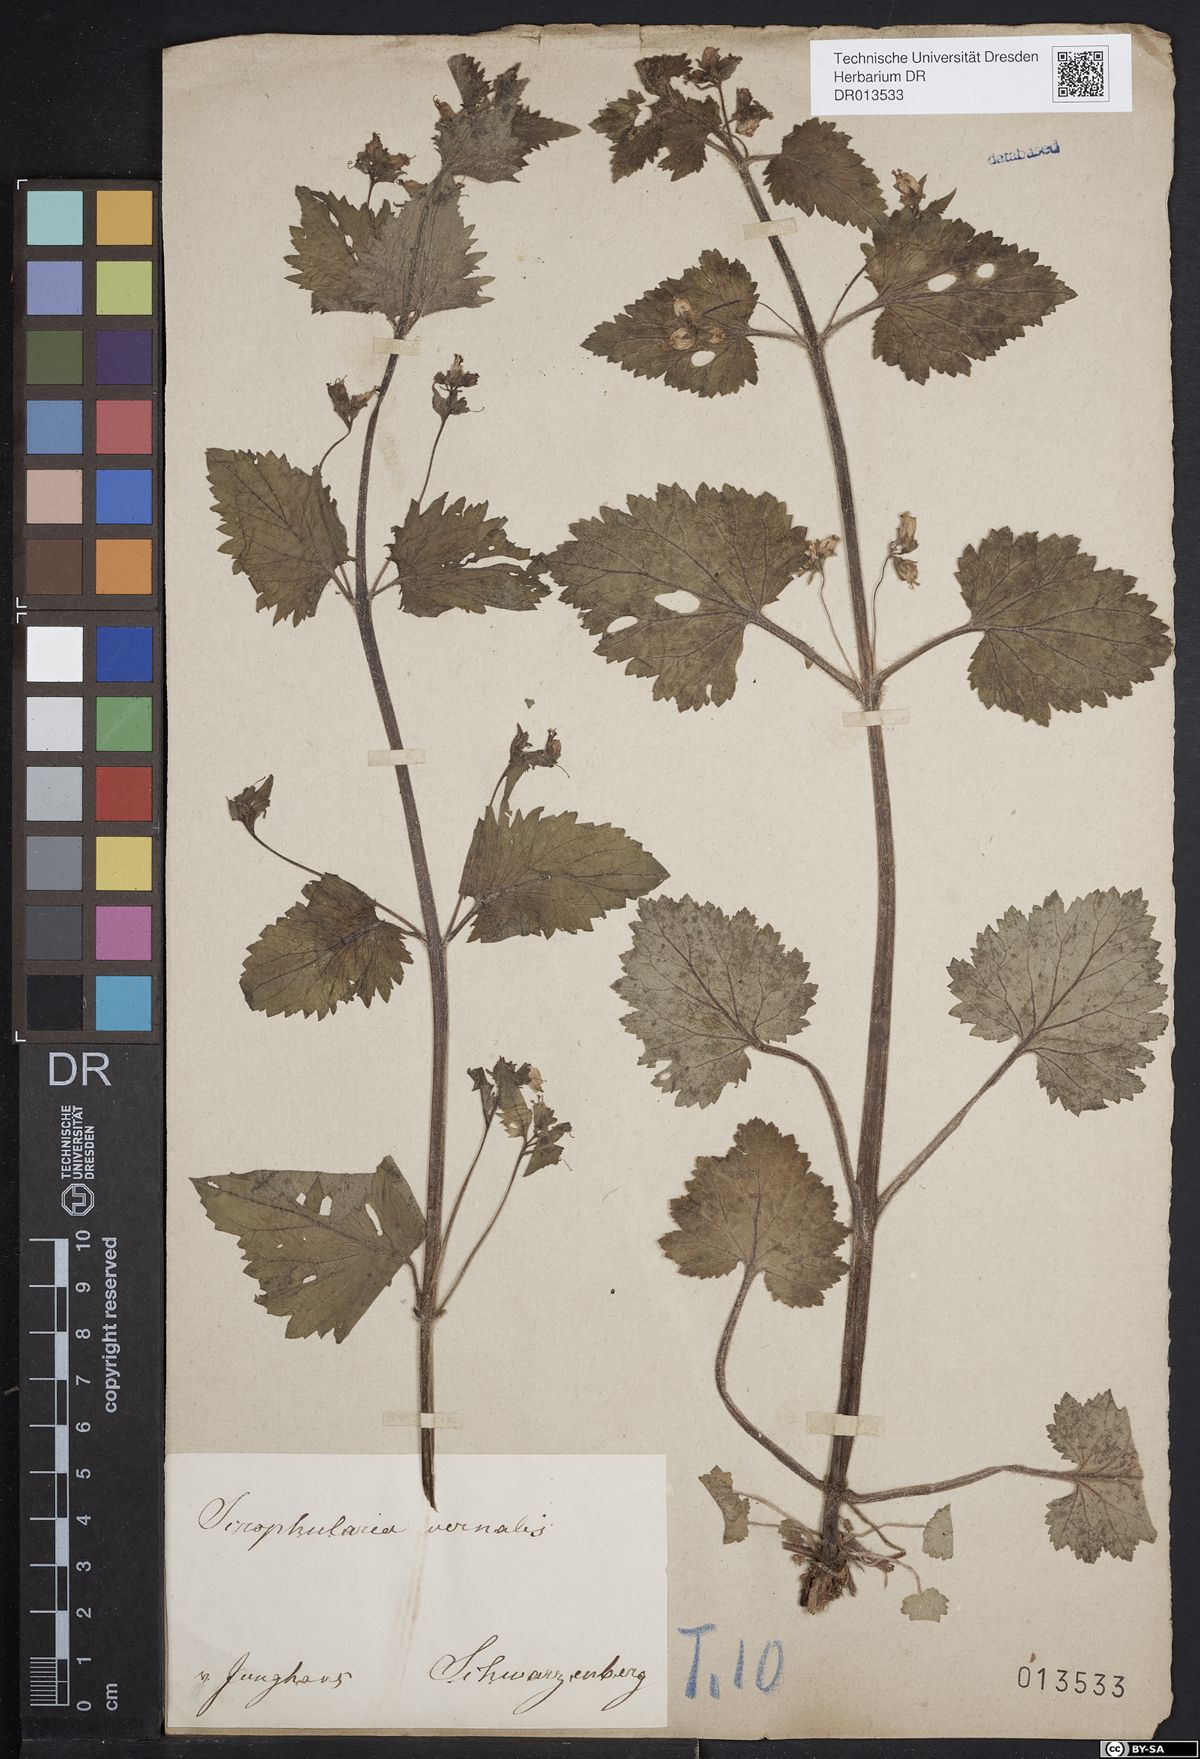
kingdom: Plantae
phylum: Tracheophyta
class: Magnoliopsida
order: Lamiales
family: Scrophulariaceae
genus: Scrophularia
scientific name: Scrophularia vernalis
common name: Yellow figwort
